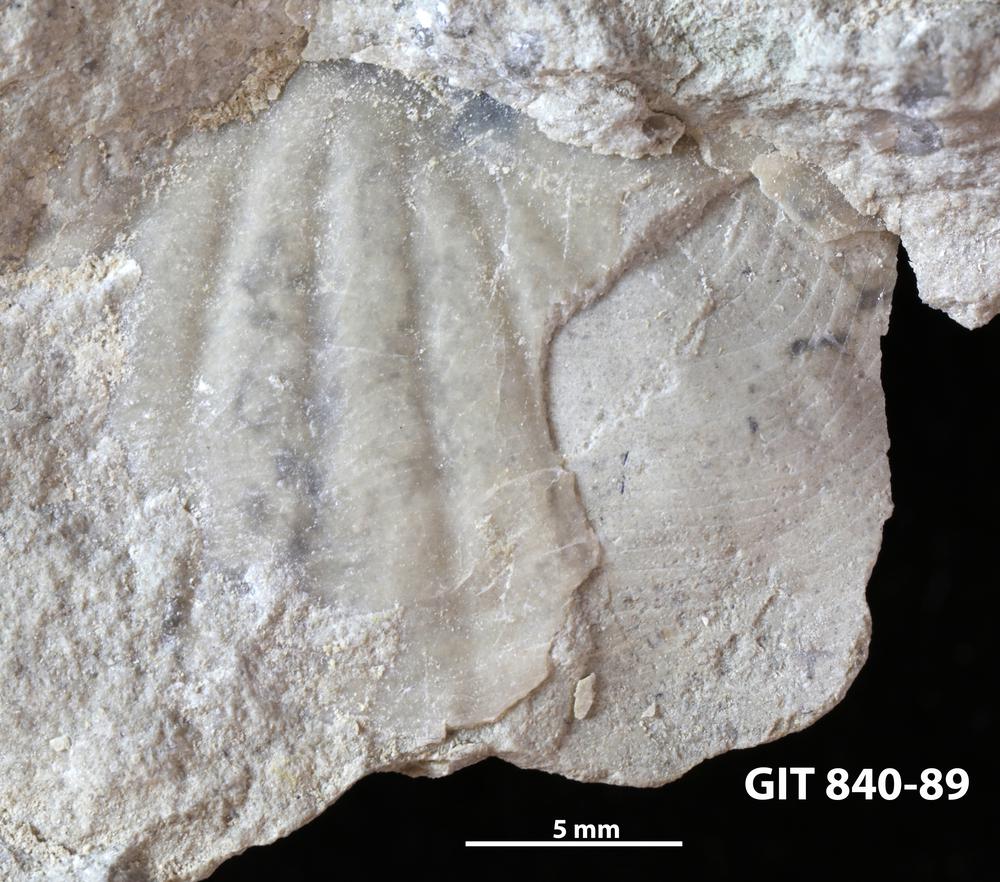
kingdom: Animalia
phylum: Arthropoda
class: Trilobita
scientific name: Trilobita
